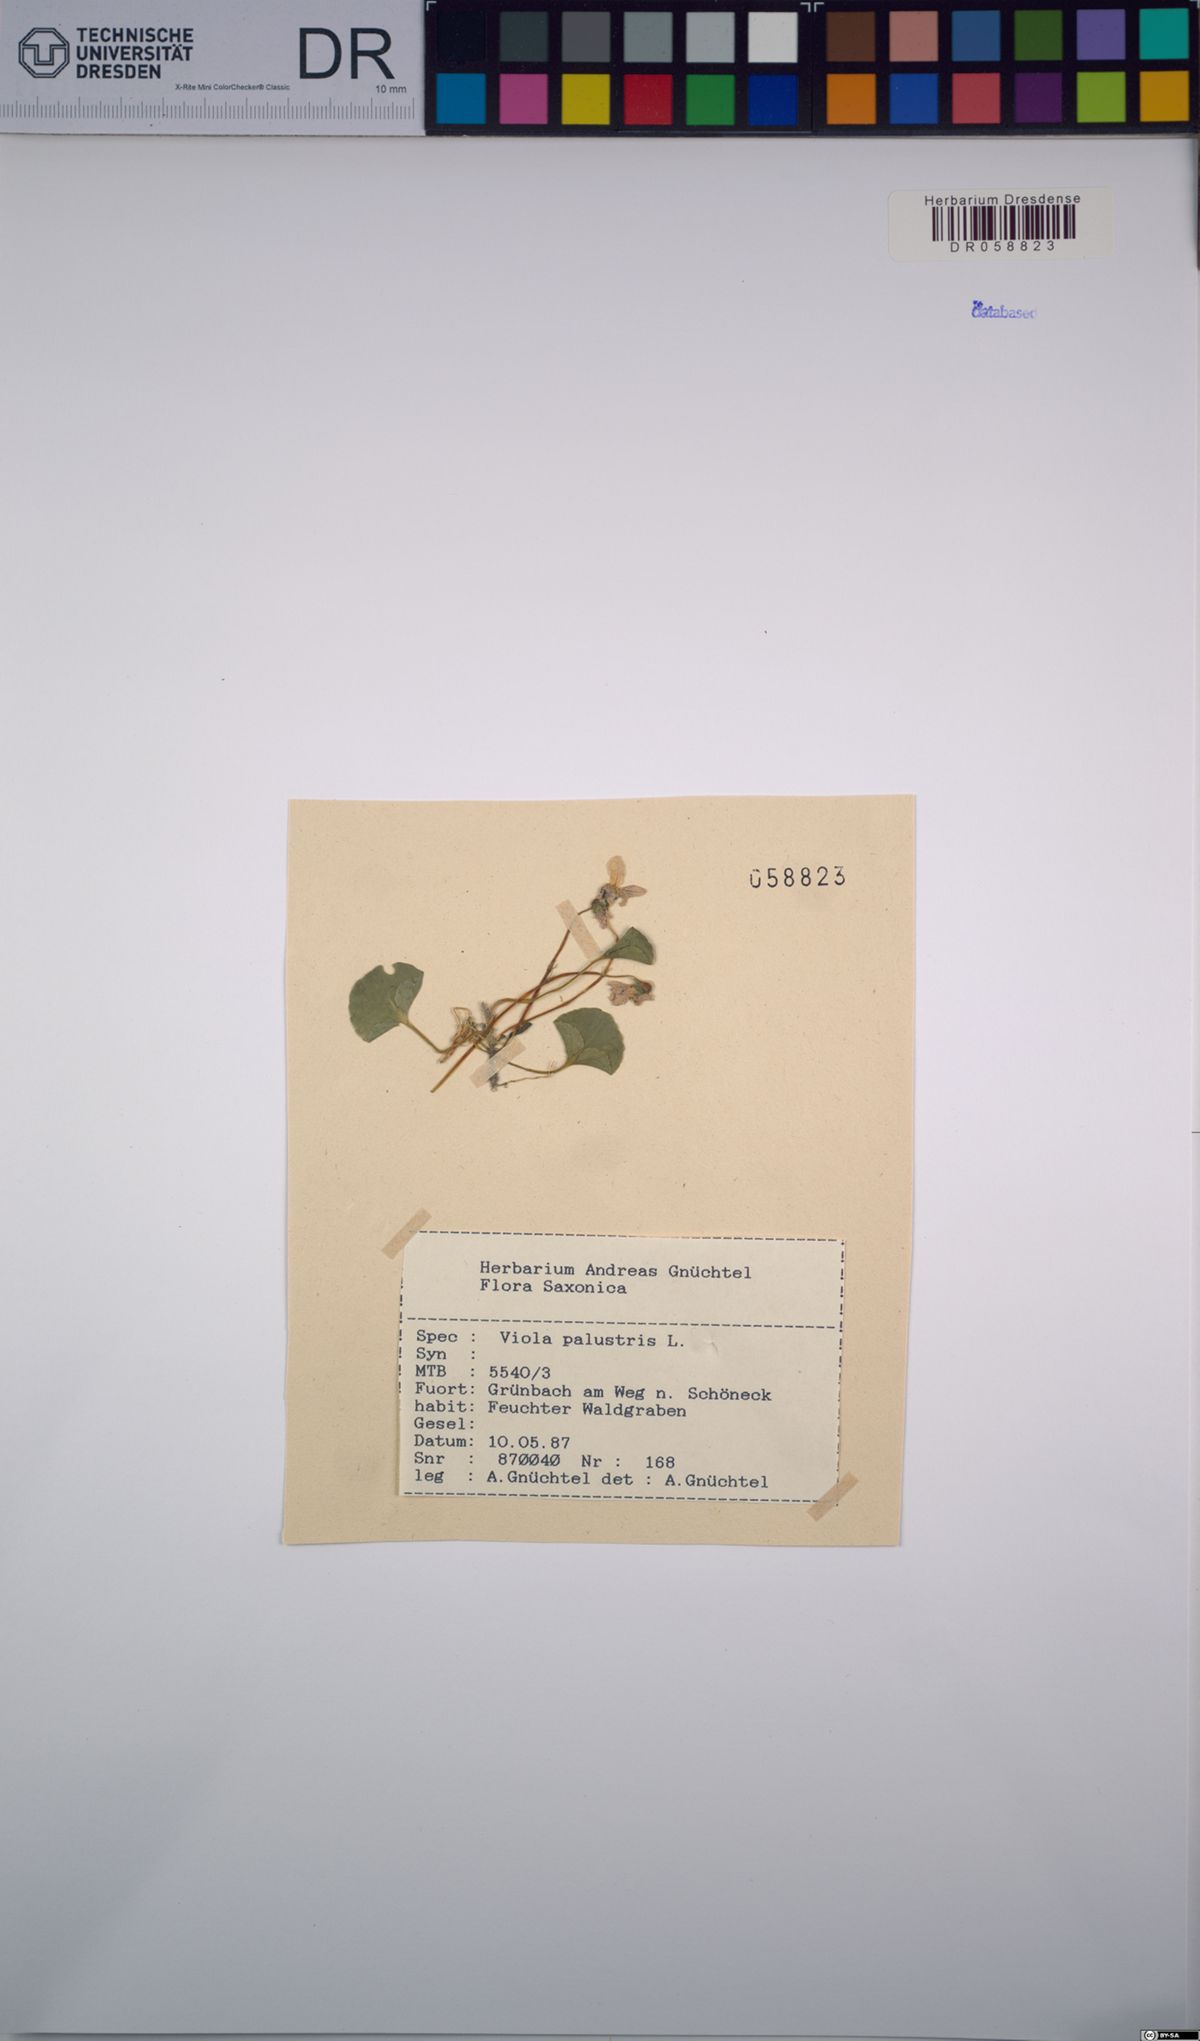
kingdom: Plantae
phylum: Tracheophyta
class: Magnoliopsida
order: Malpighiales
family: Violaceae
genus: Viola
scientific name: Viola palustris
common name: Marsh violet
